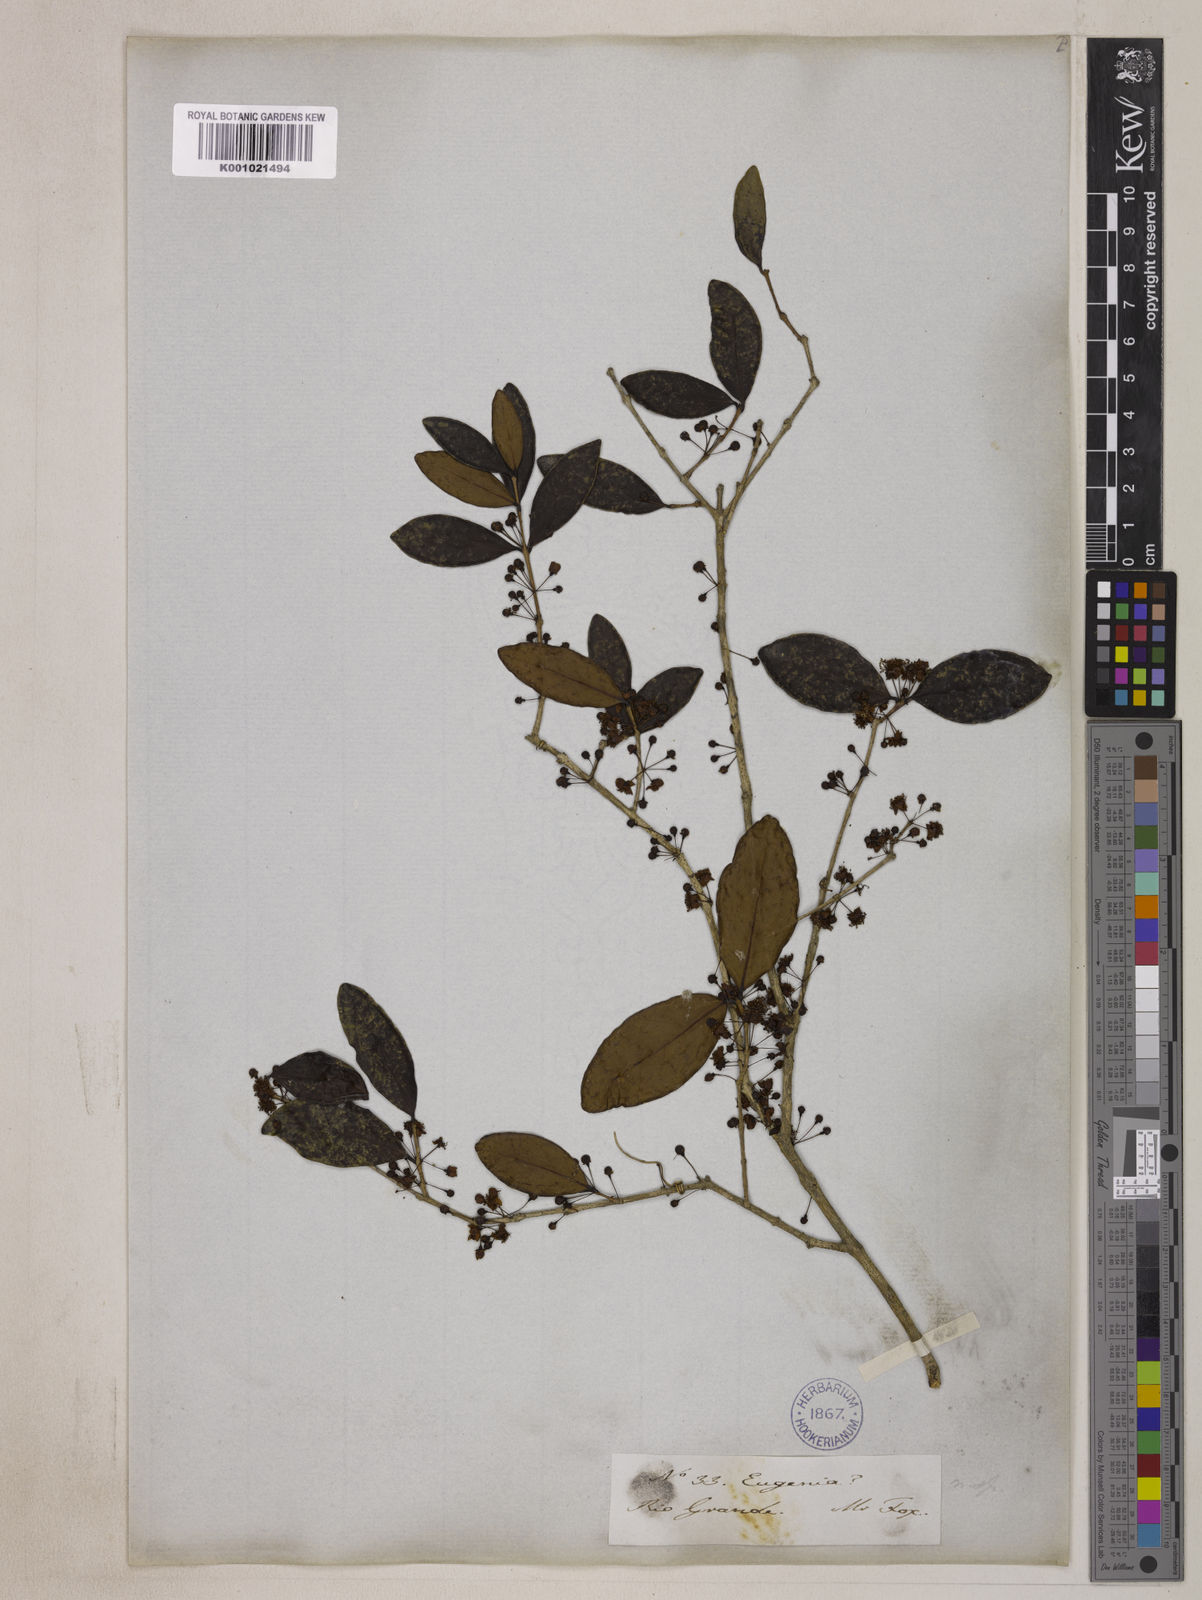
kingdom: Plantae
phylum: Tracheophyta
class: Magnoliopsida
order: Myrtales
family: Myrtaceae
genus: Eugenia
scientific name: Eugenia hiemalis
